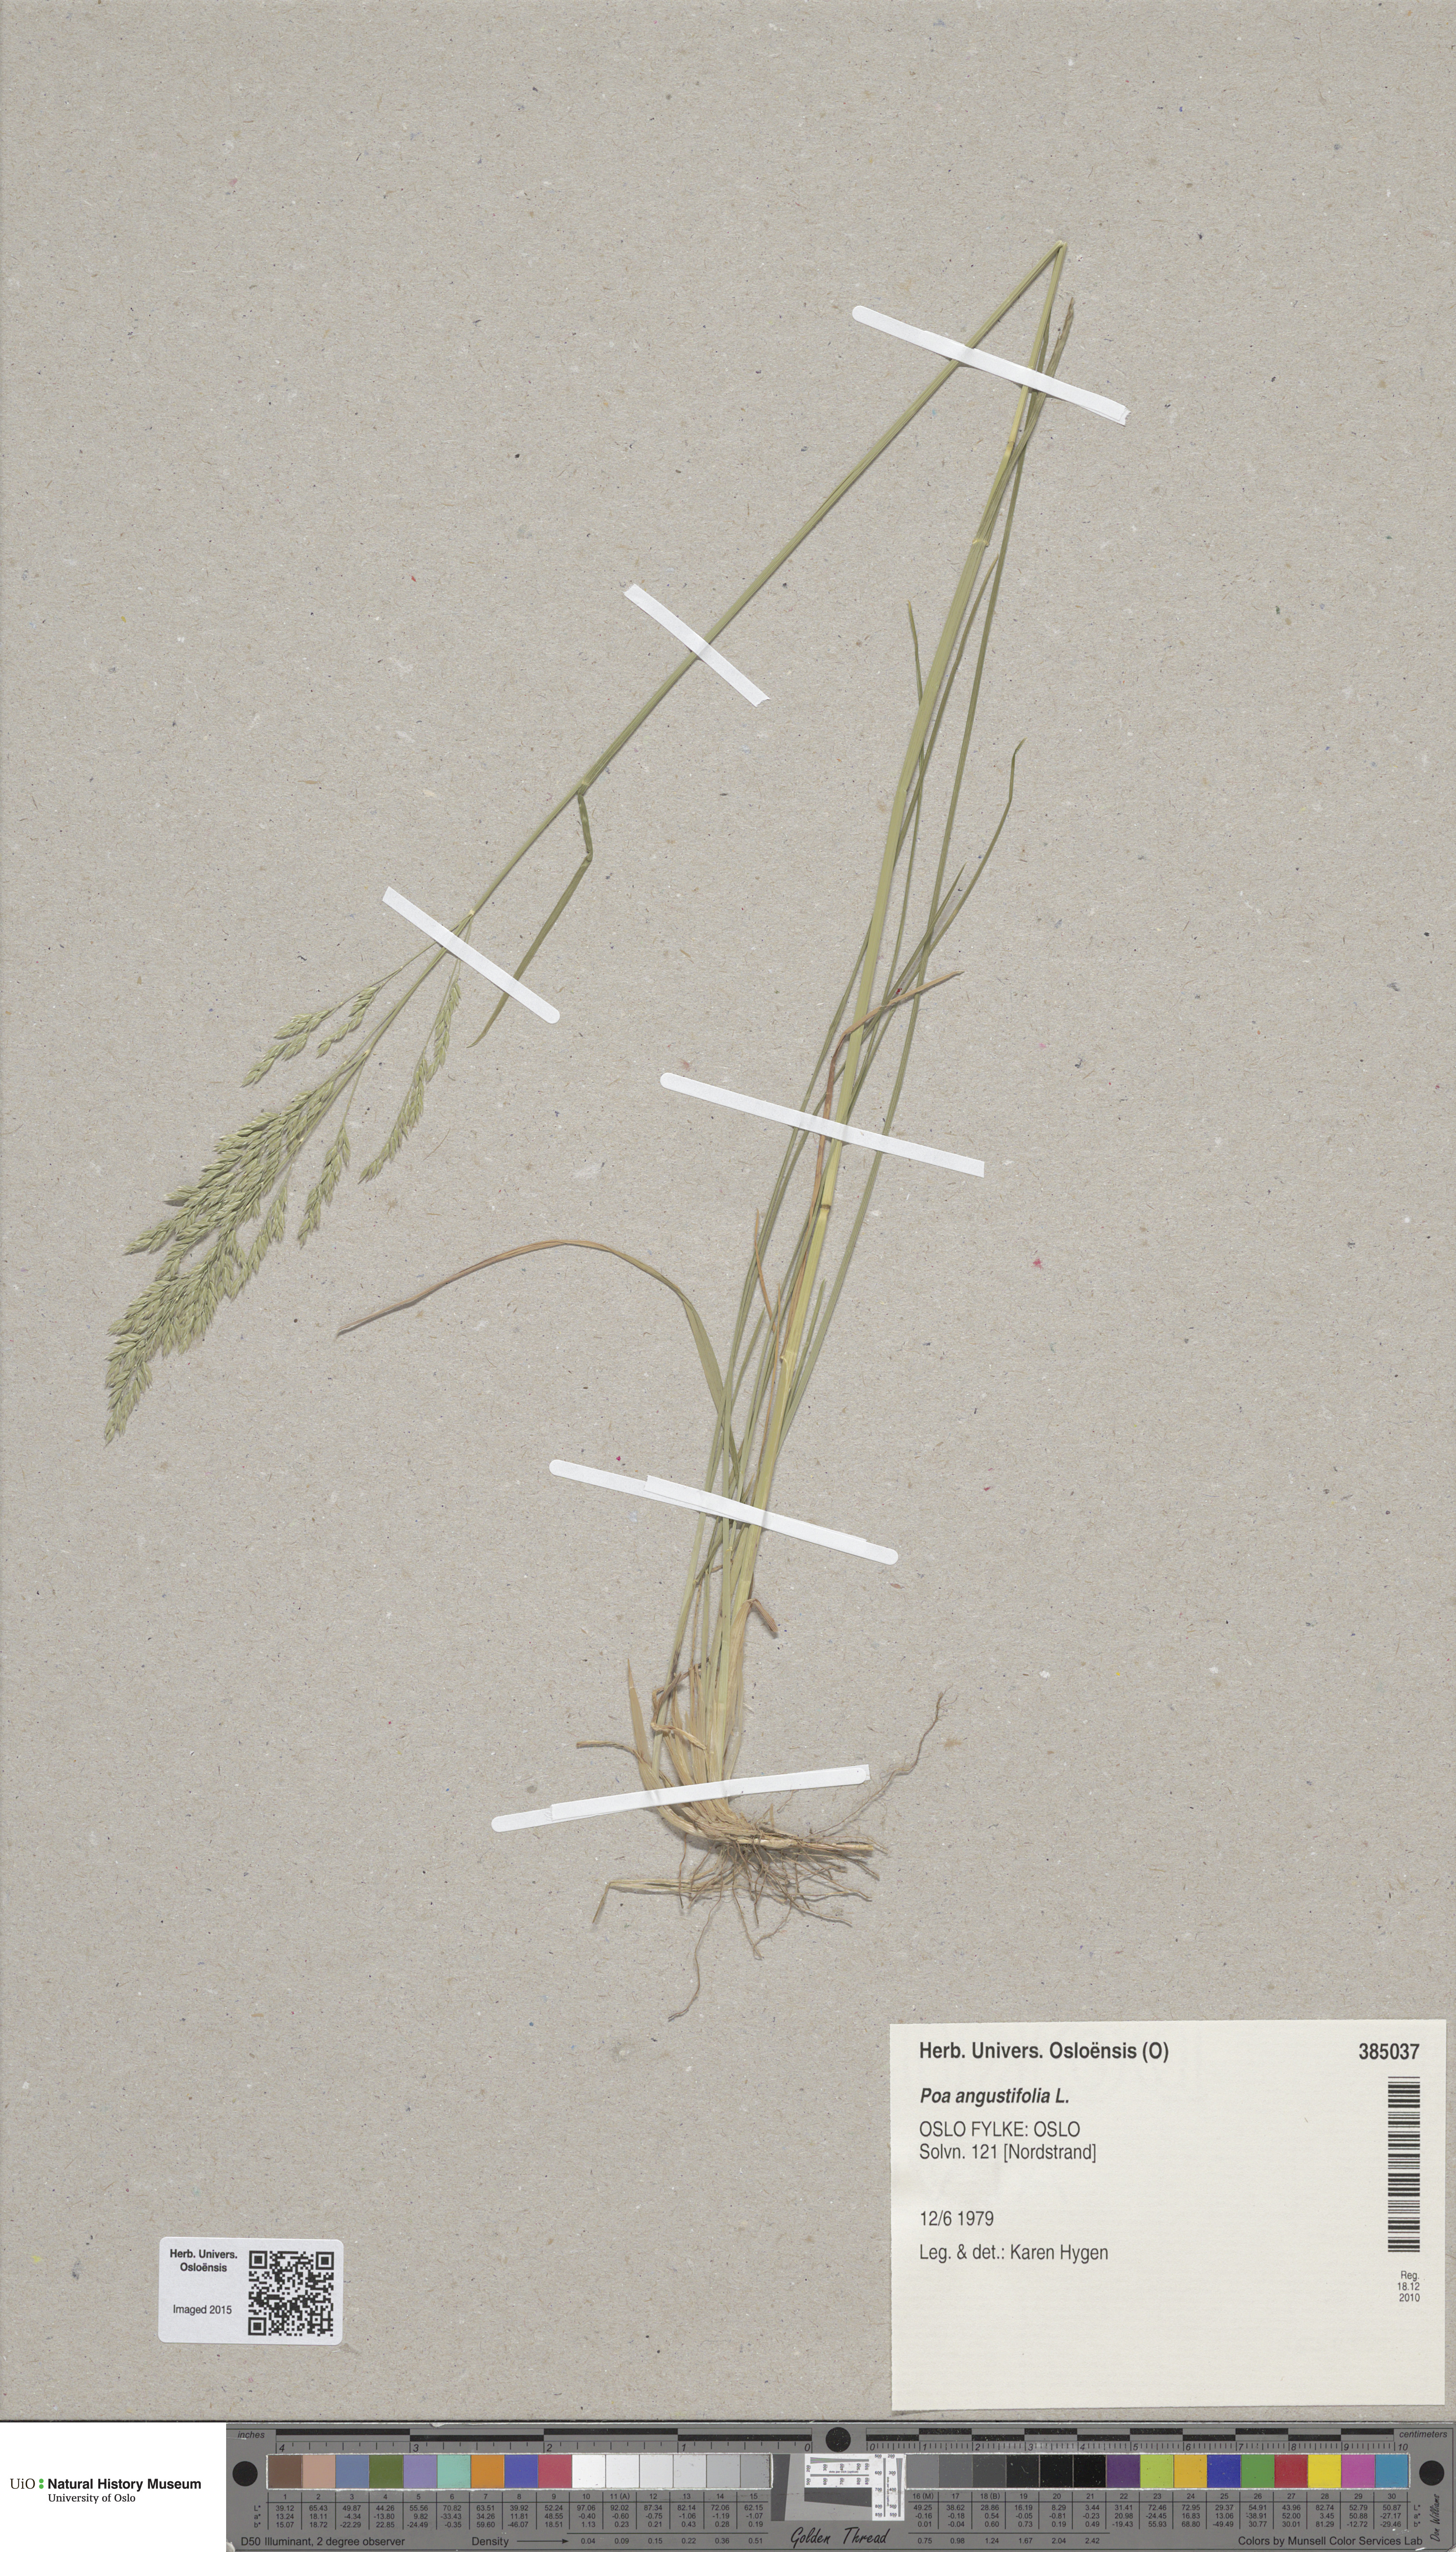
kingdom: Plantae
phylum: Tracheophyta
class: Liliopsida
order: Poales
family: Poaceae
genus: Poa
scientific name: Poa angustifolia
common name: Narrow-leaved meadow-grass
